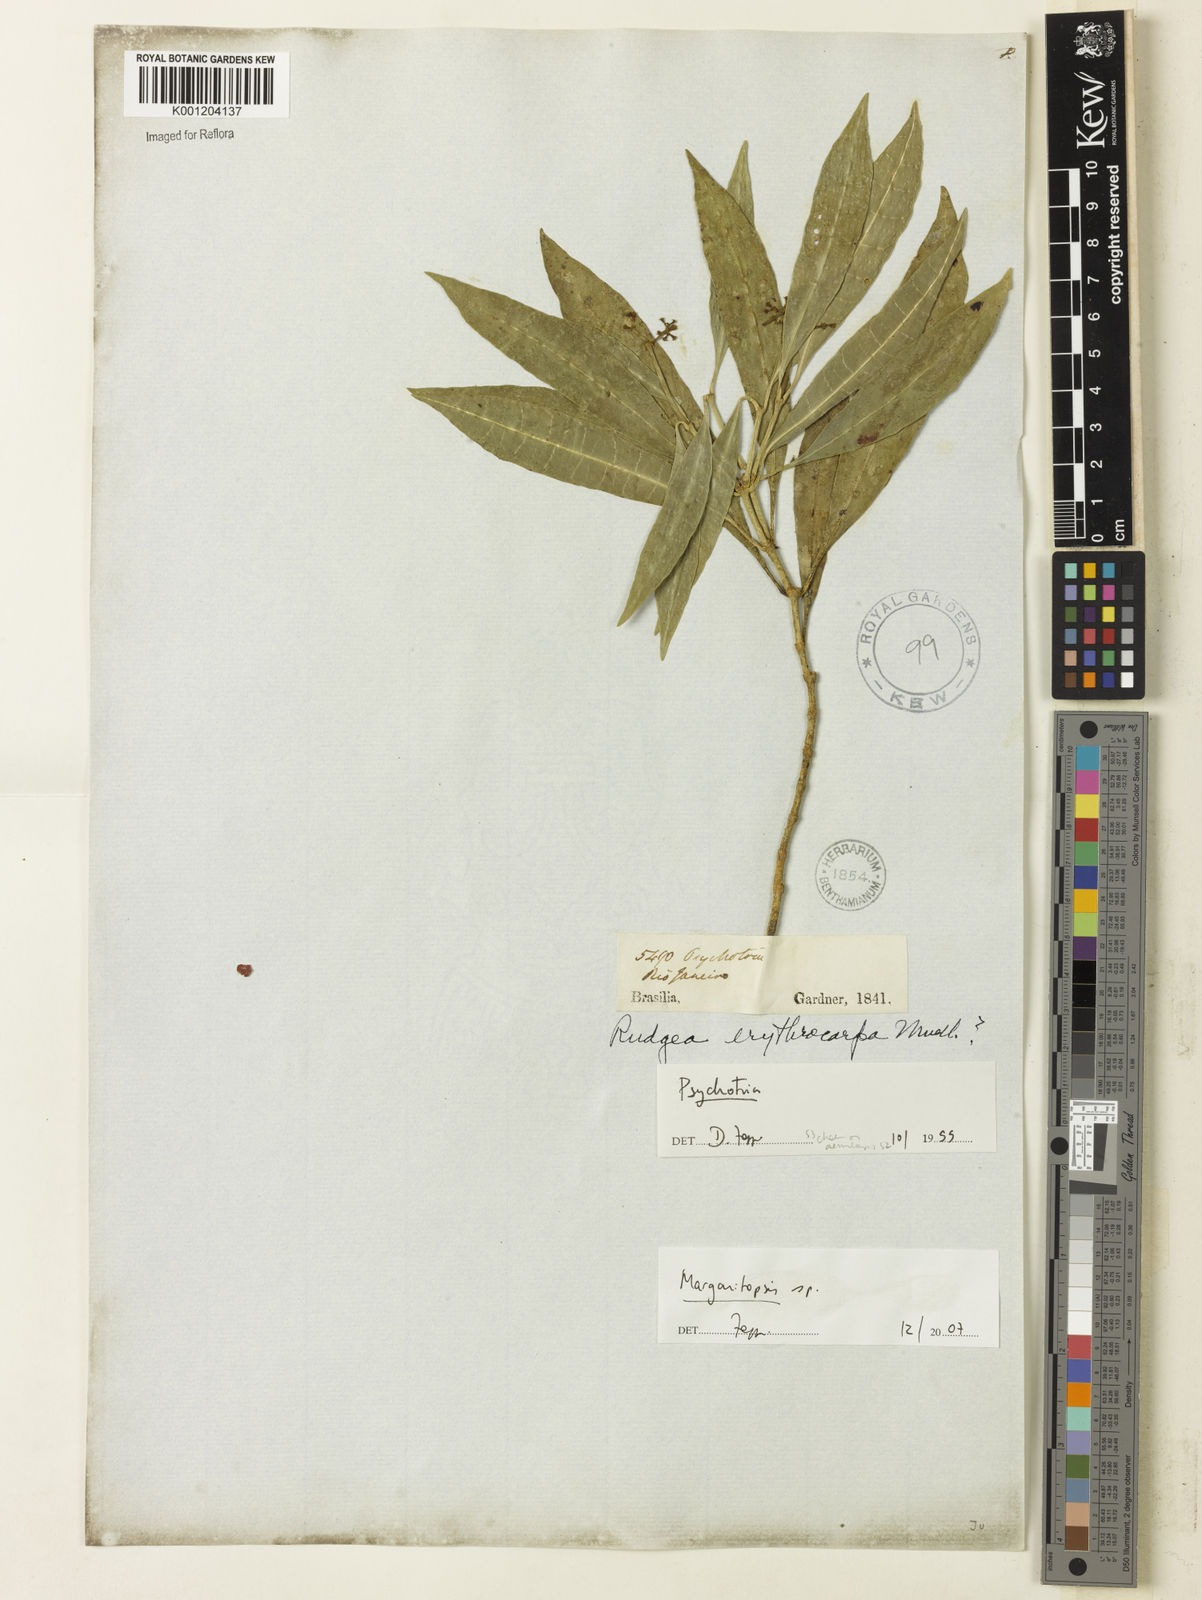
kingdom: Plantae
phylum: Tracheophyta
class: Magnoliopsida
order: Gentianales
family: Rubiaceae
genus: Eumachia
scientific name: Eumachia
